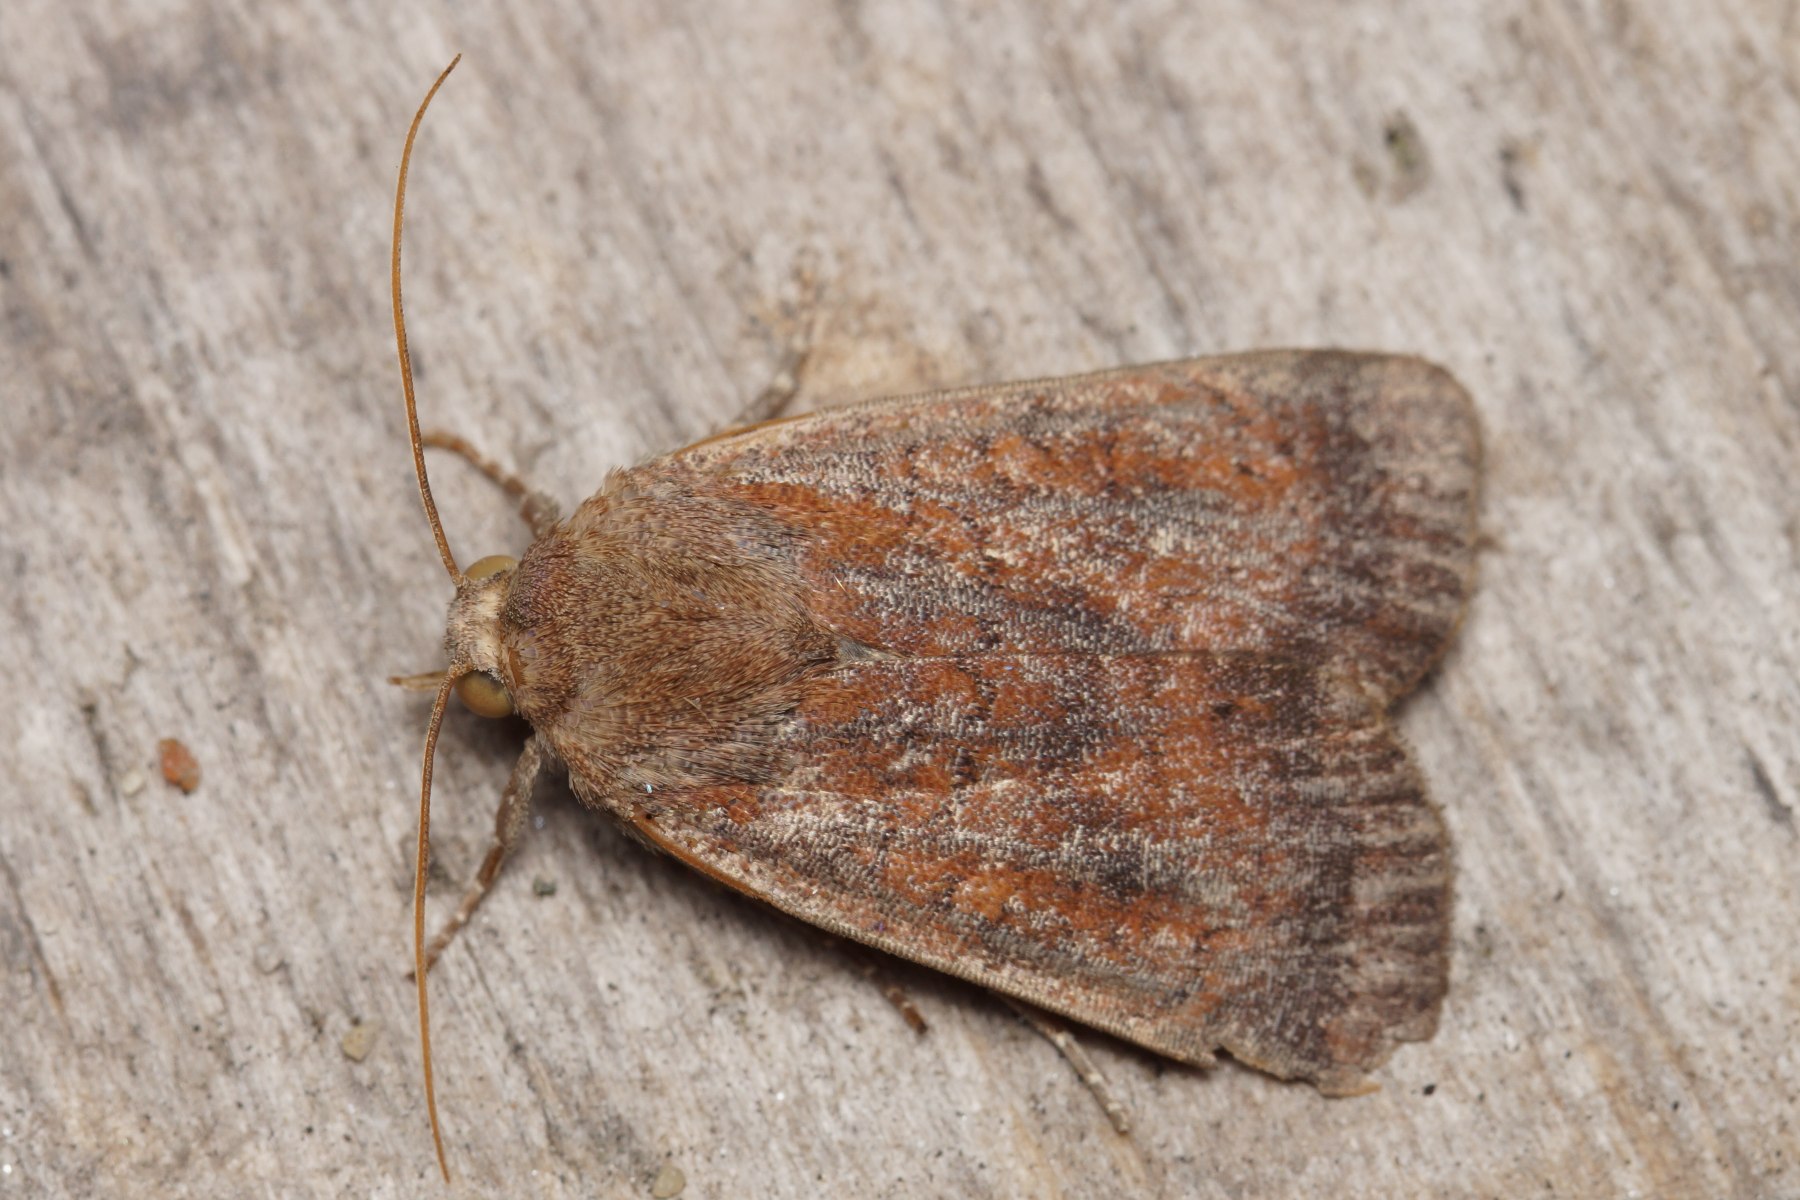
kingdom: Animalia
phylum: Arthropoda
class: Insecta
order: Lepidoptera
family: Noctuidae
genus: Noctua
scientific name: Noctua interjecta
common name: Mørksømmet smutugle
